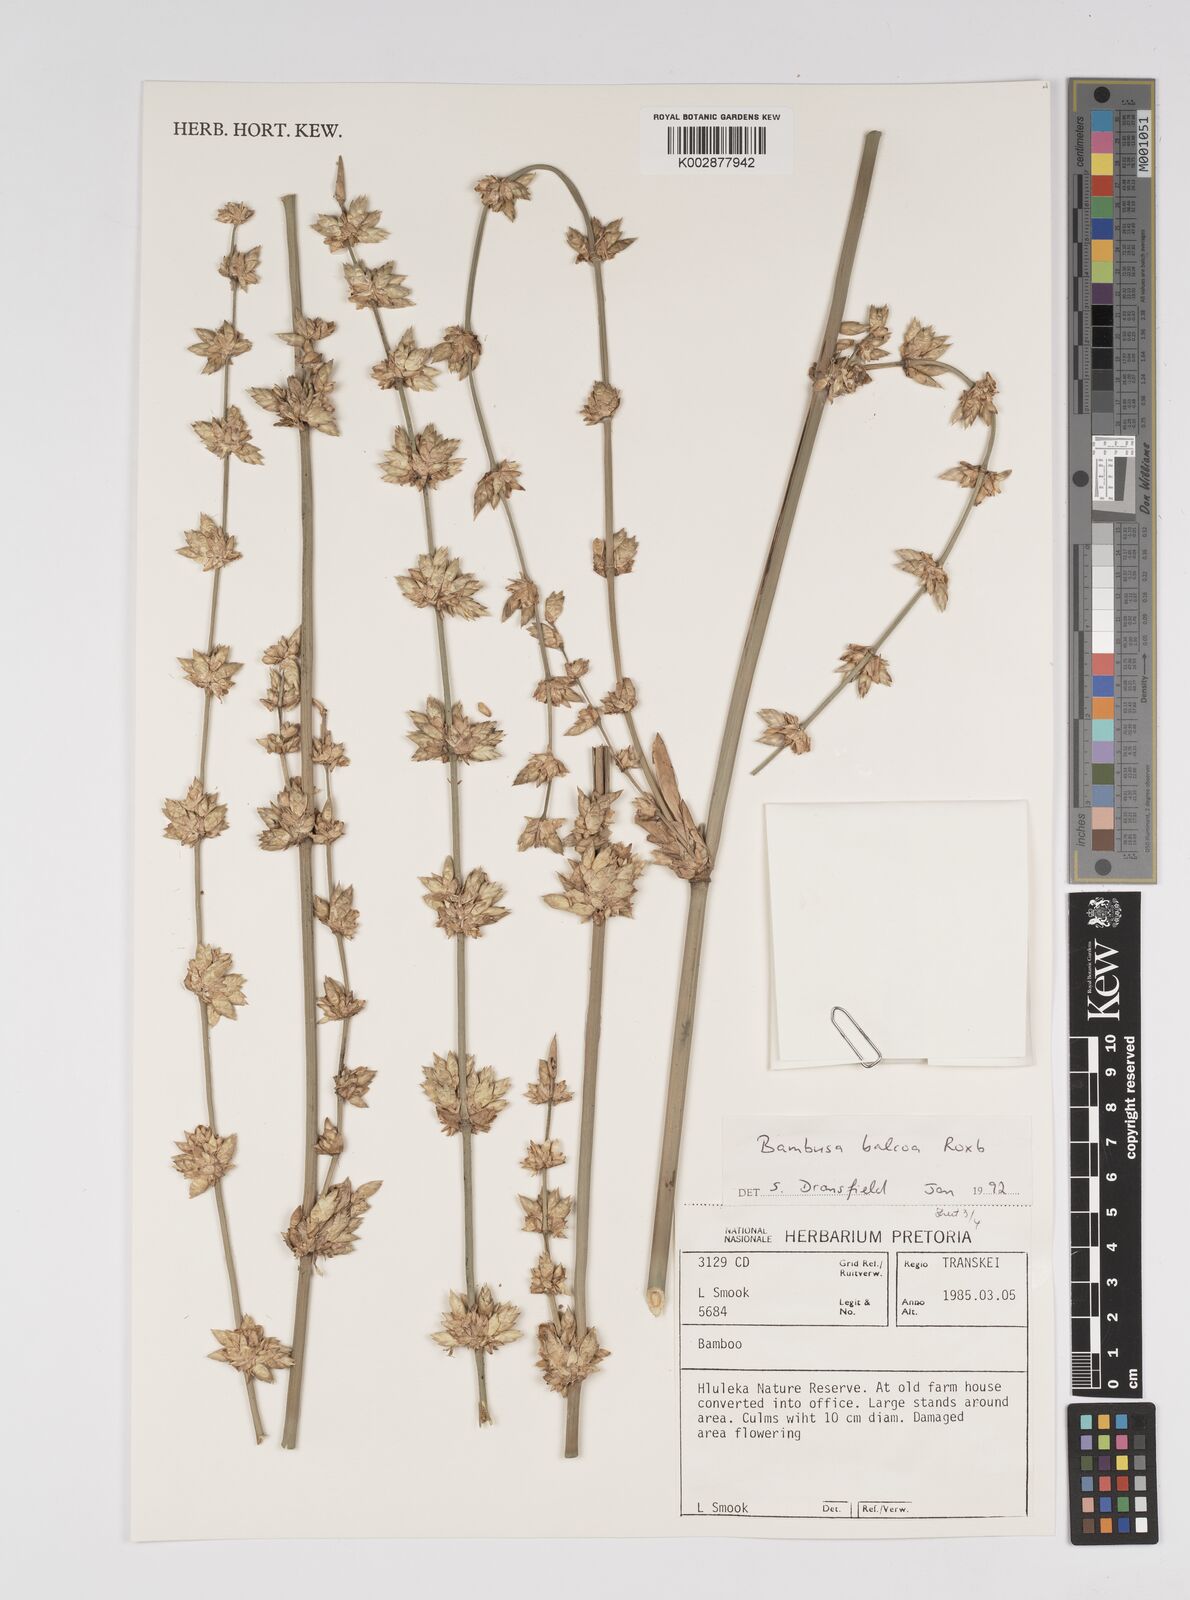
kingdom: Plantae
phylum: Tracheophyta
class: Liliopsida
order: Poales
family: Poaceae
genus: Bambusa
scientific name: Bambusa balcooa
